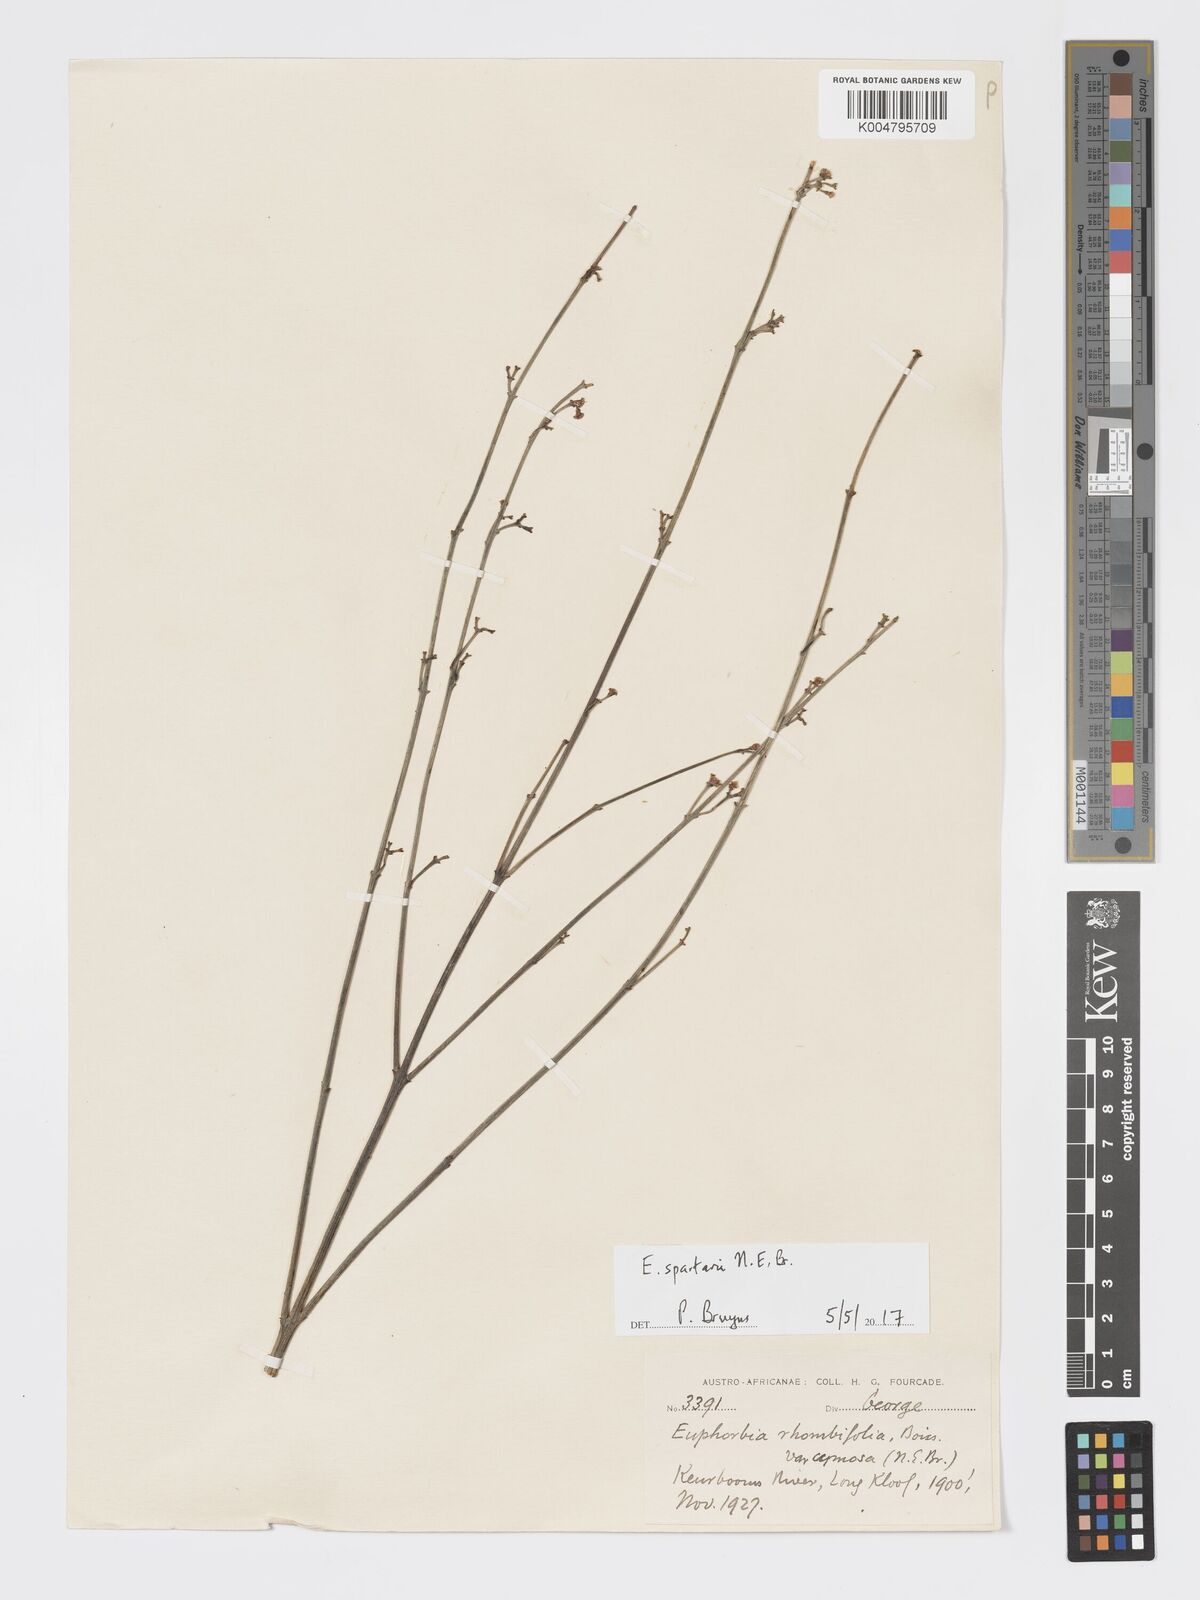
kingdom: Plantae
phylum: Tracheophyta
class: Magnoliopsida
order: Malpighiales
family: Euphorbiaceae
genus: Euphorbia
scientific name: Euphorbia spartaria
